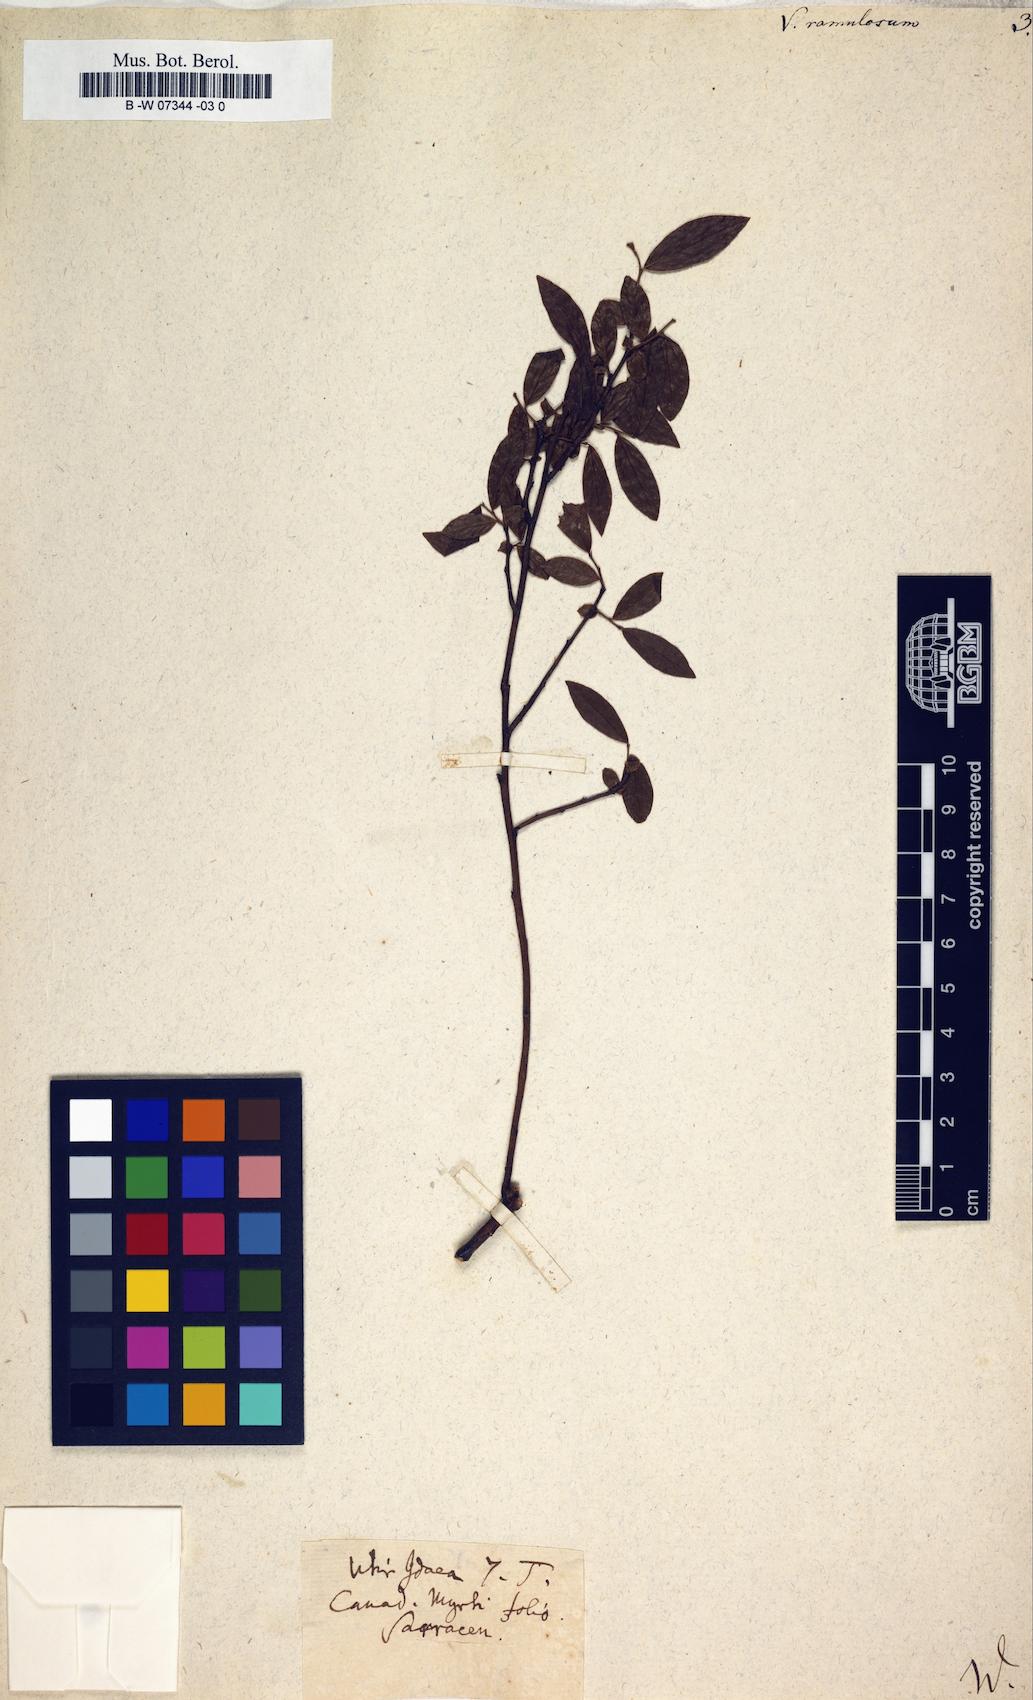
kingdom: Plantae
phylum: Tracheophyta
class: Magnoliopsida
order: Ericales
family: Ericaceae
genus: Vaccinium
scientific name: Vaccinium angustifolium
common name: Early lowbush blueberry
